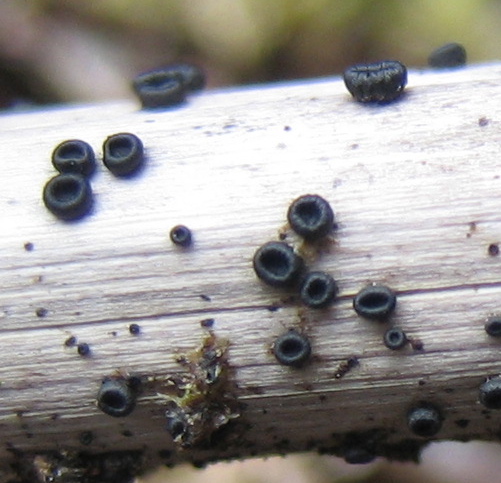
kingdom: Fungi
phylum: Ascomycota
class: Leotiomycetes
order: Helotiales
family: Heterosphaeriaceae
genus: Heterosphaeria
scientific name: Heterosphaeria
